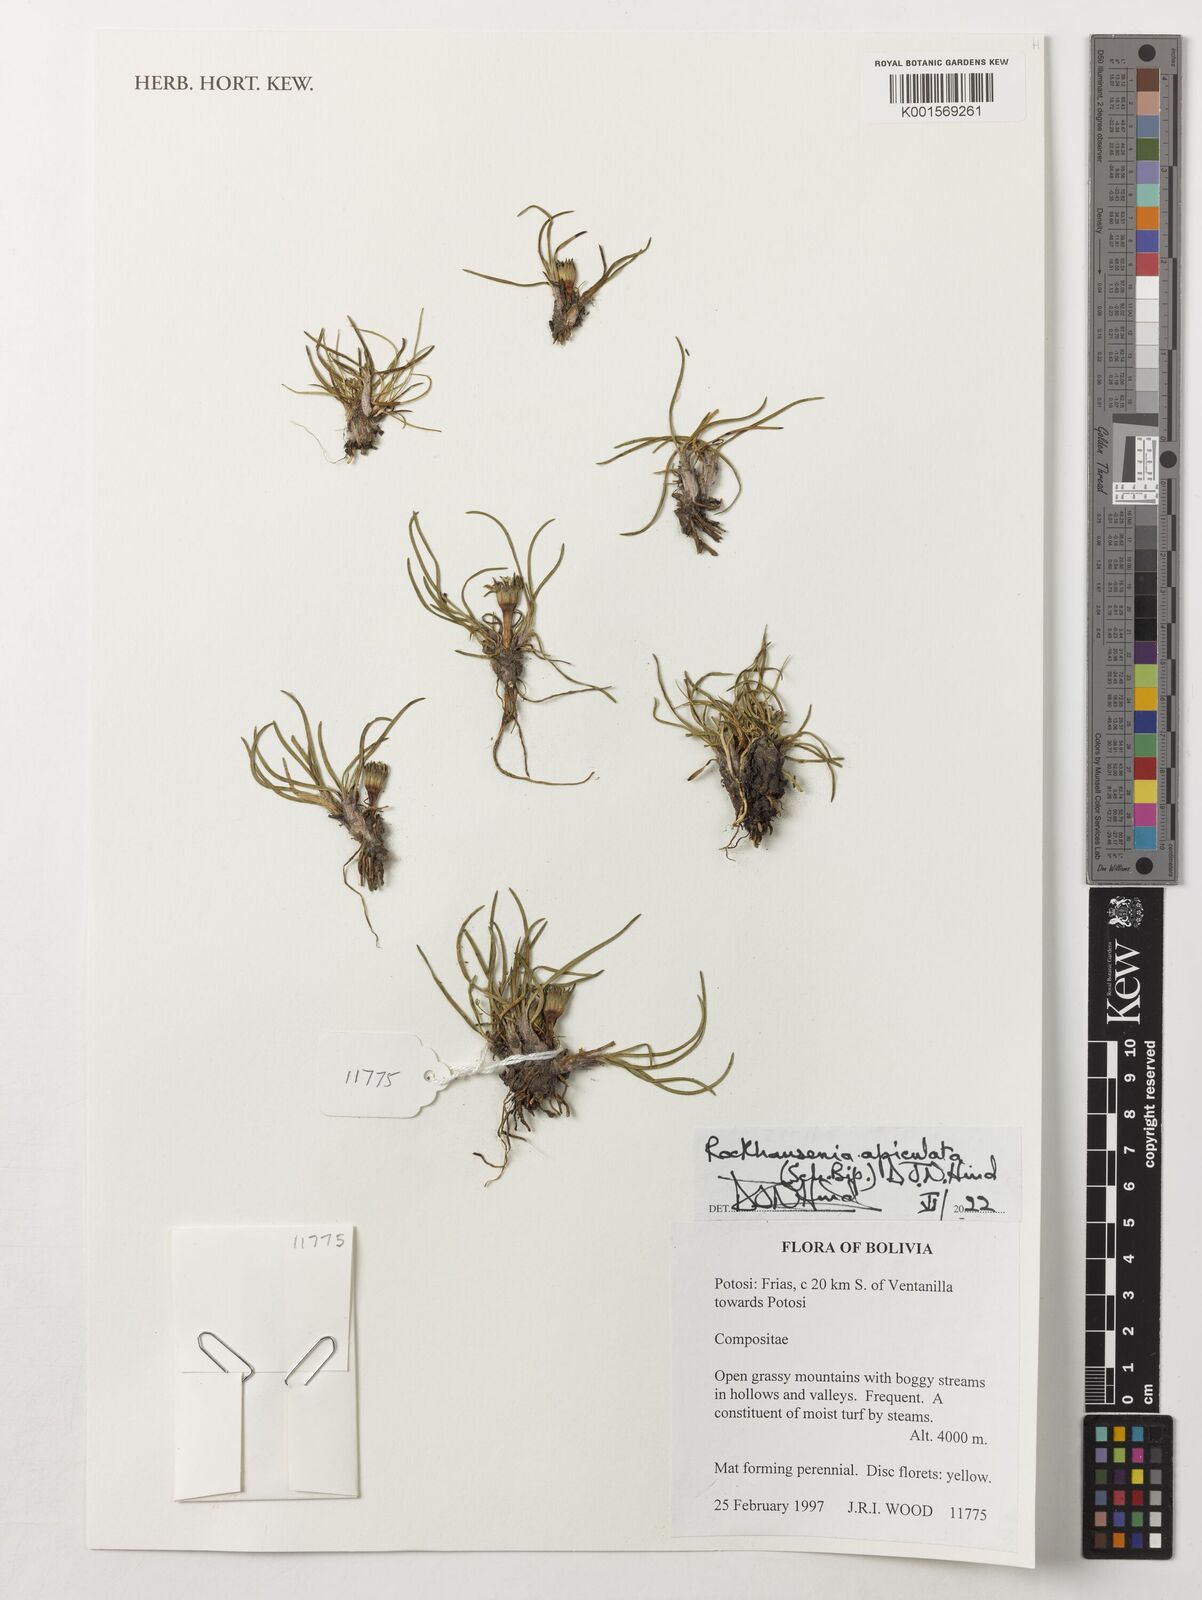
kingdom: Plantae
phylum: Tracheophyta
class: Magnoliopsida
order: Asterales
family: Asteraceae
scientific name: Asteraceae
